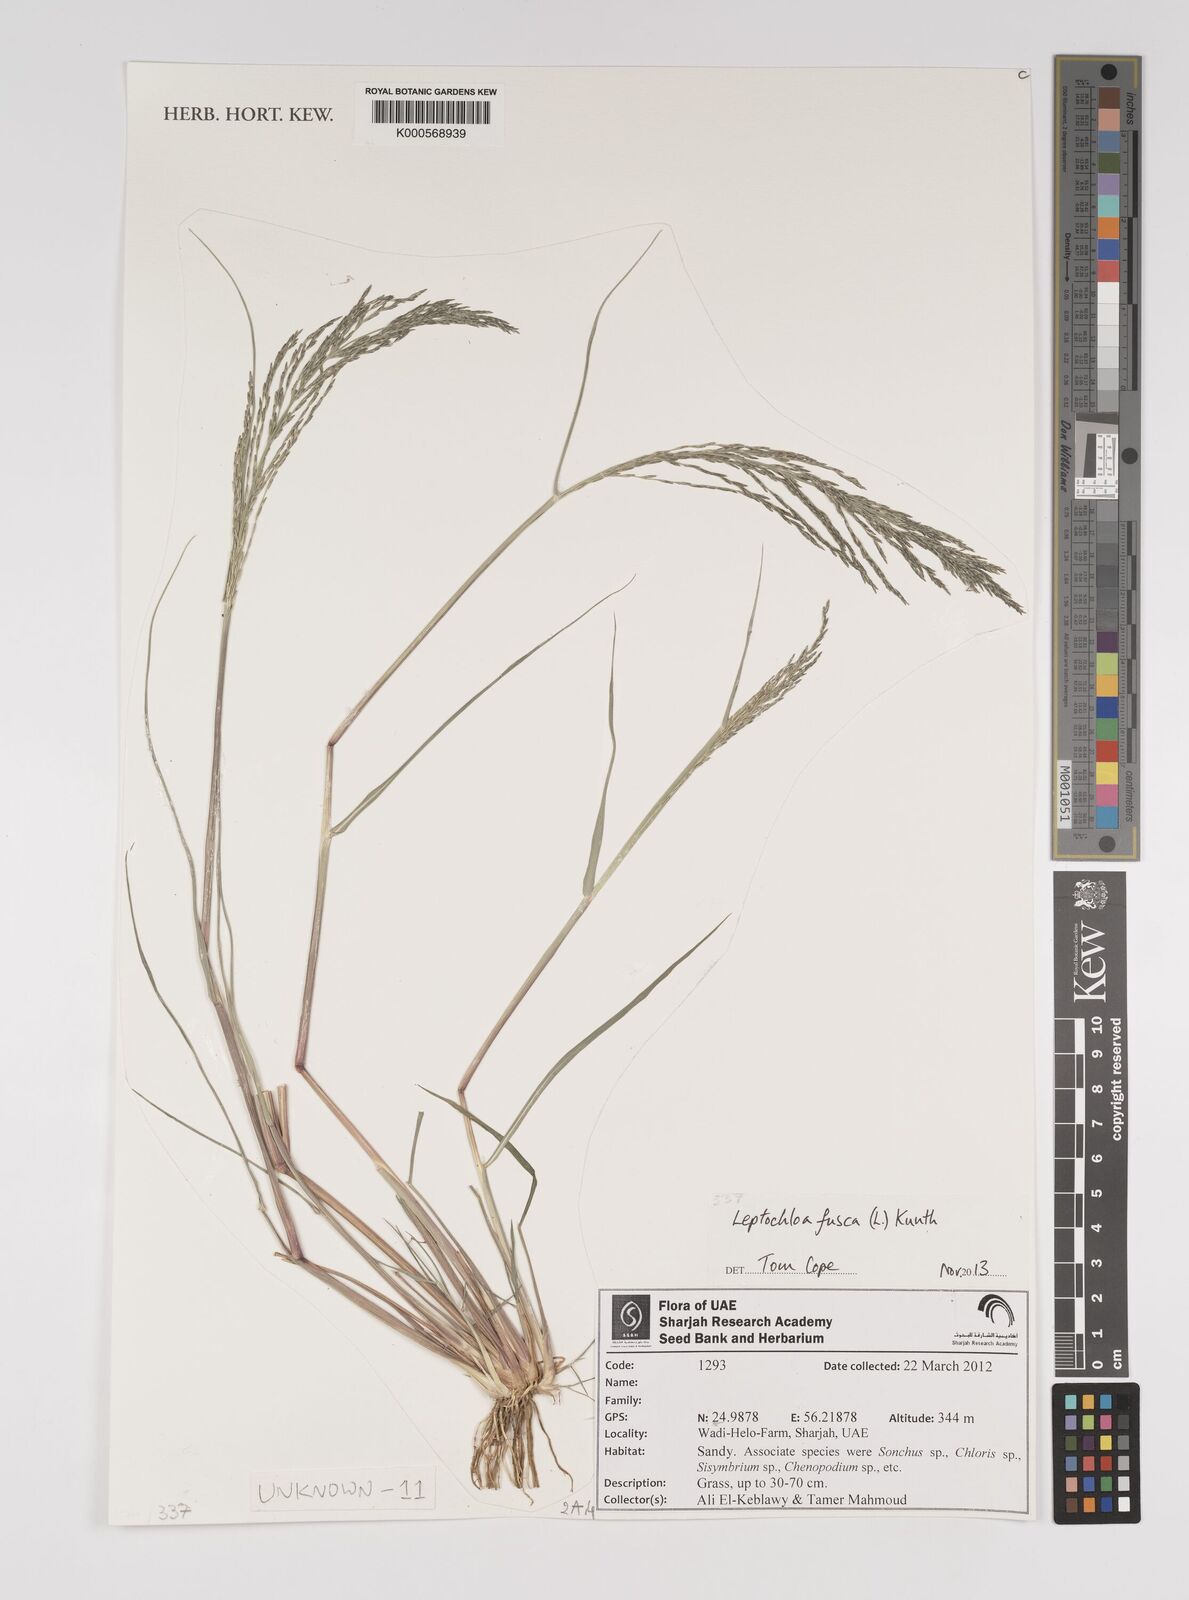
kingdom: Plantae
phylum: Tracheophyta
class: Liliopsida
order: Poales
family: Poaceae
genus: Diplachne
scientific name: Diplachne fusca
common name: Brown beetle grass
